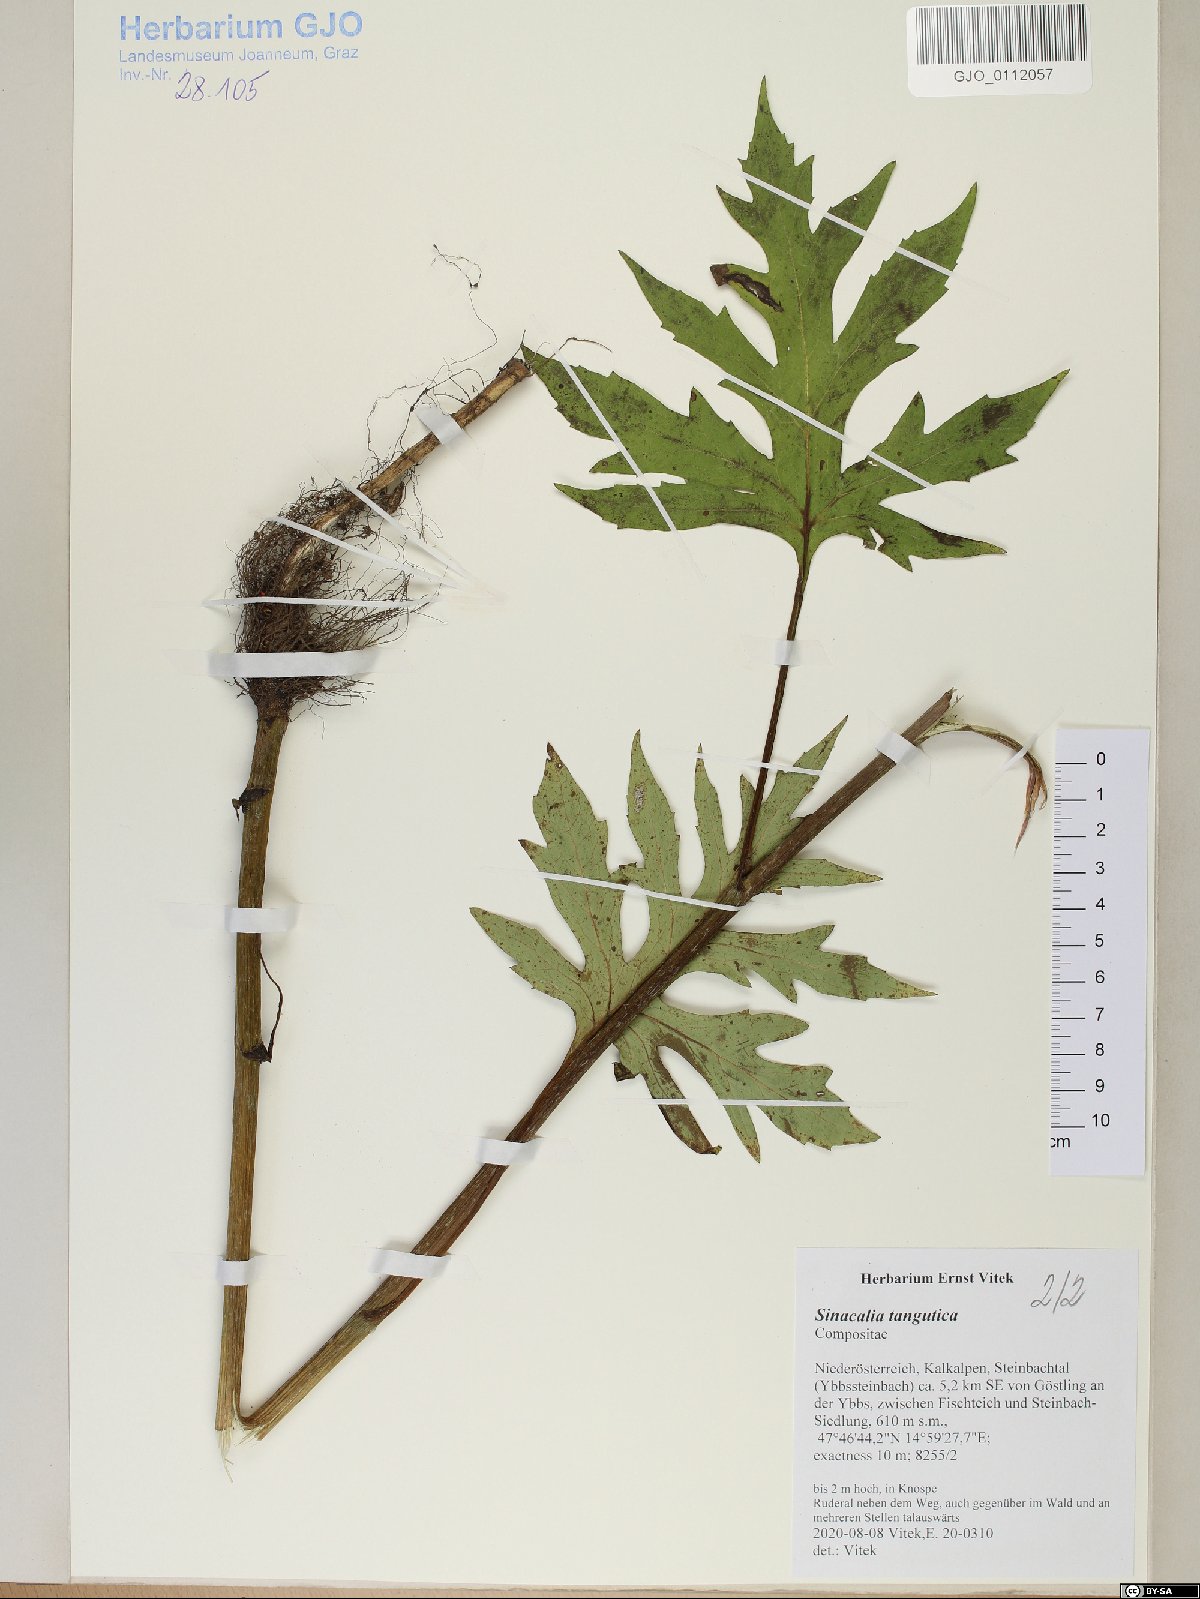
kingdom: Plantae
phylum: Tracheophyta
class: Magnoliopsida
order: Asterales
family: Asteraceae
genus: Sinacalia
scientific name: Sinacalia tangutica
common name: Chinese ragwort
